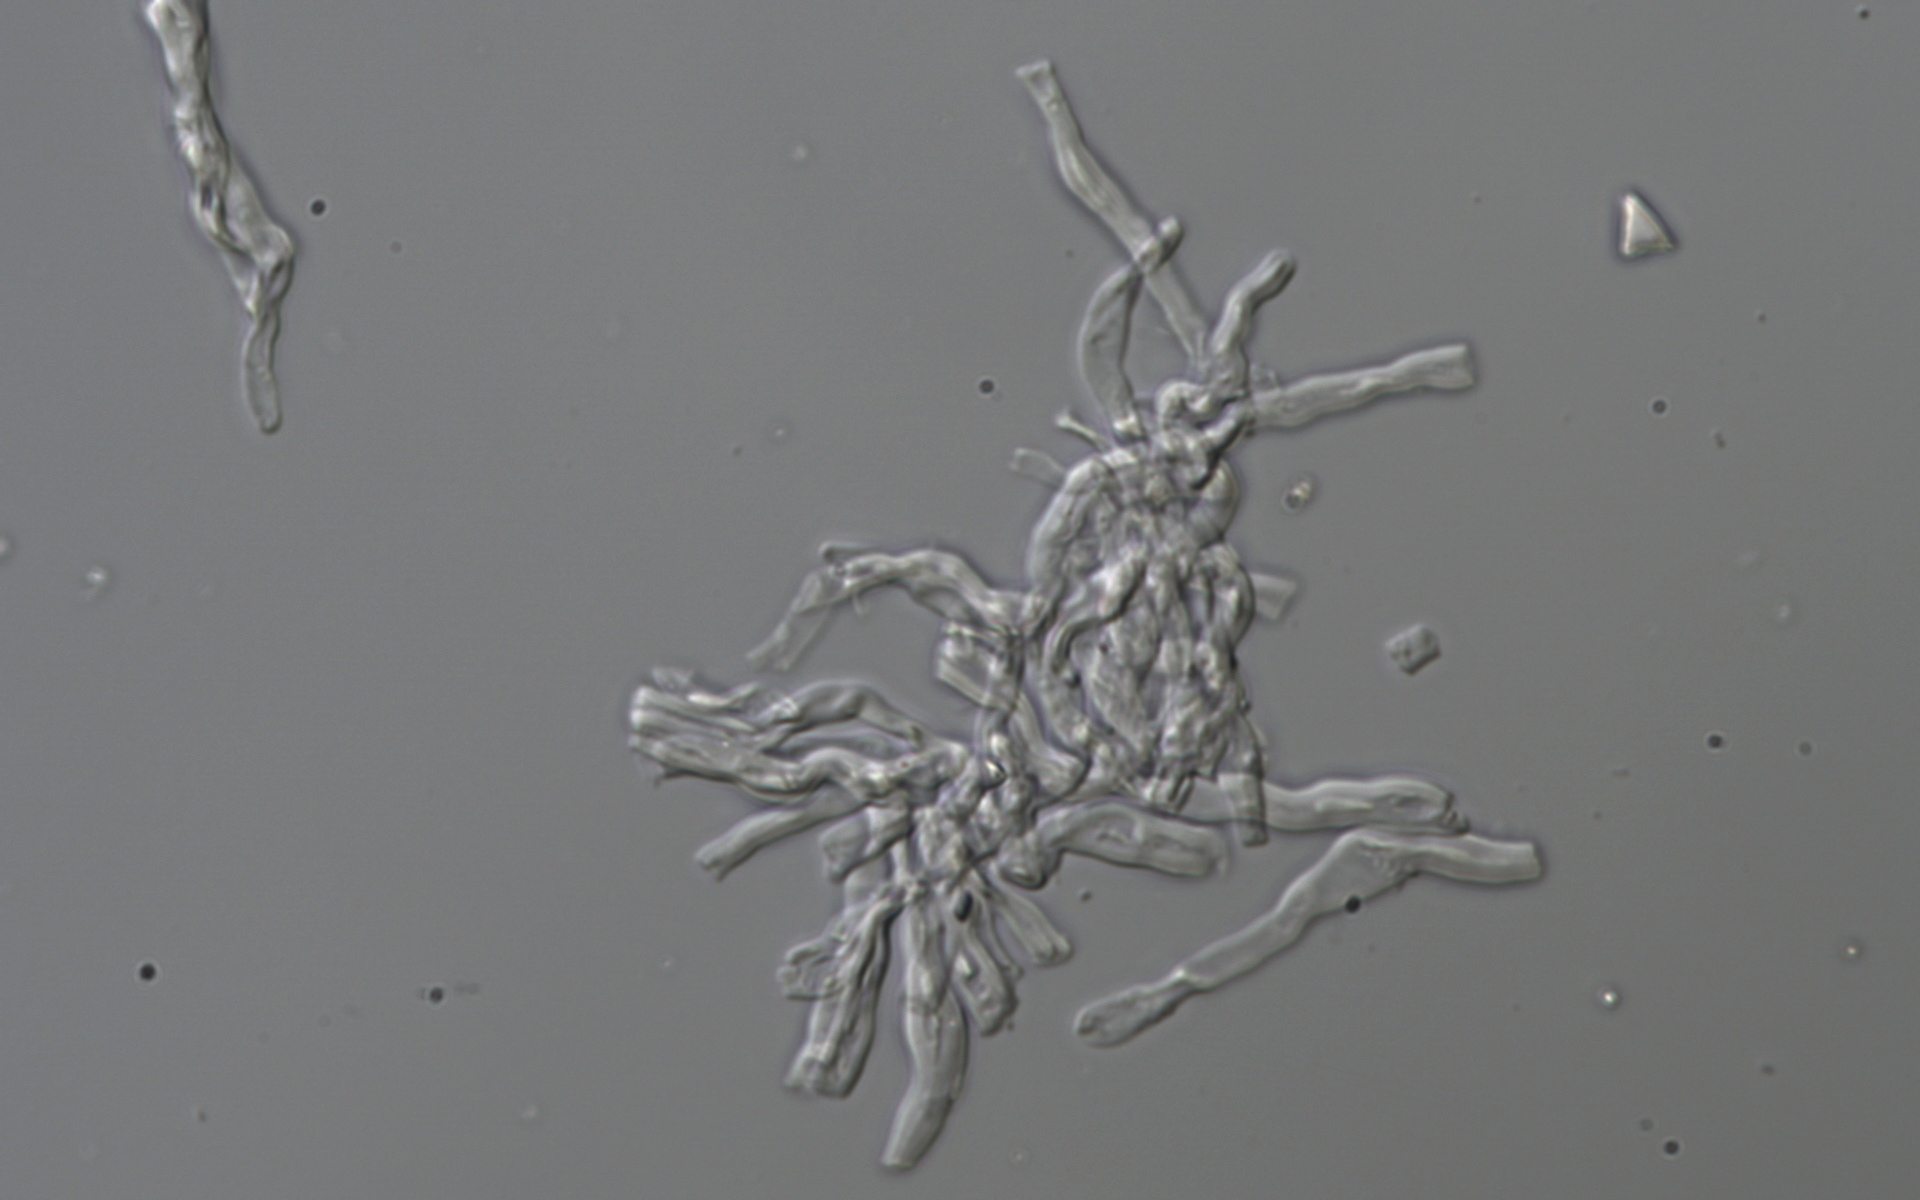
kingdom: Fungi
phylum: Basidiomycota
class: Dacrymycetes
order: Dacrymycetales
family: Dacrymycetaceae
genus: Dacryopinax
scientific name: Dacryopinax indacocheae
